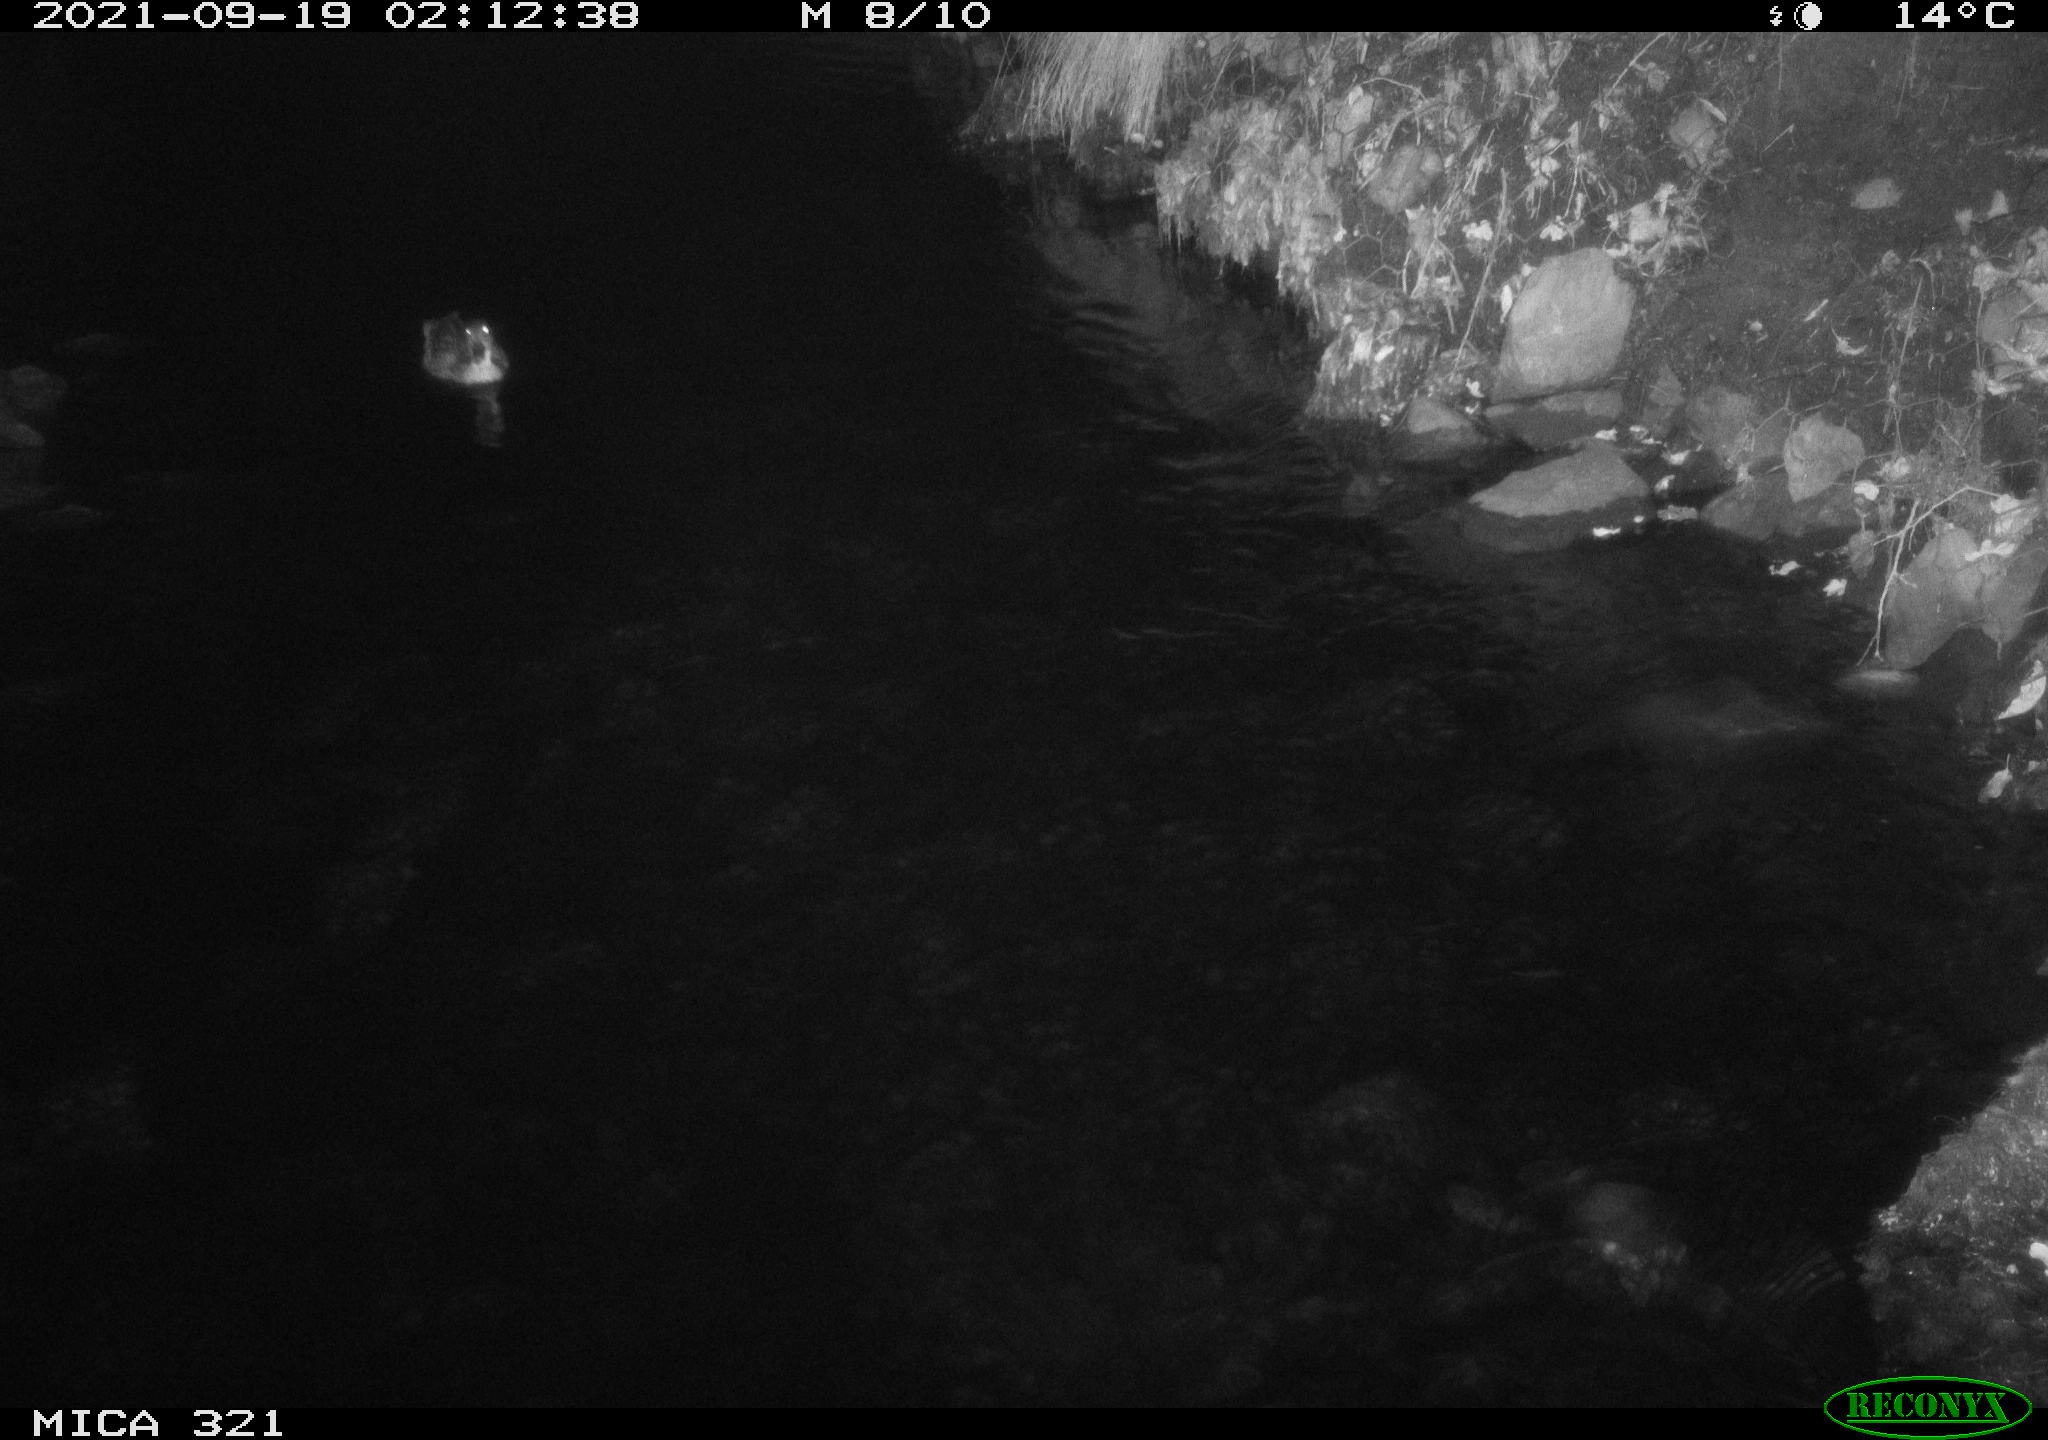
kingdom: Animalia
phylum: Chordata
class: Aves
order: Anseriformes
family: Anatidae
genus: Anas
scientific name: Anas platyrhynchos
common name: Mallard
